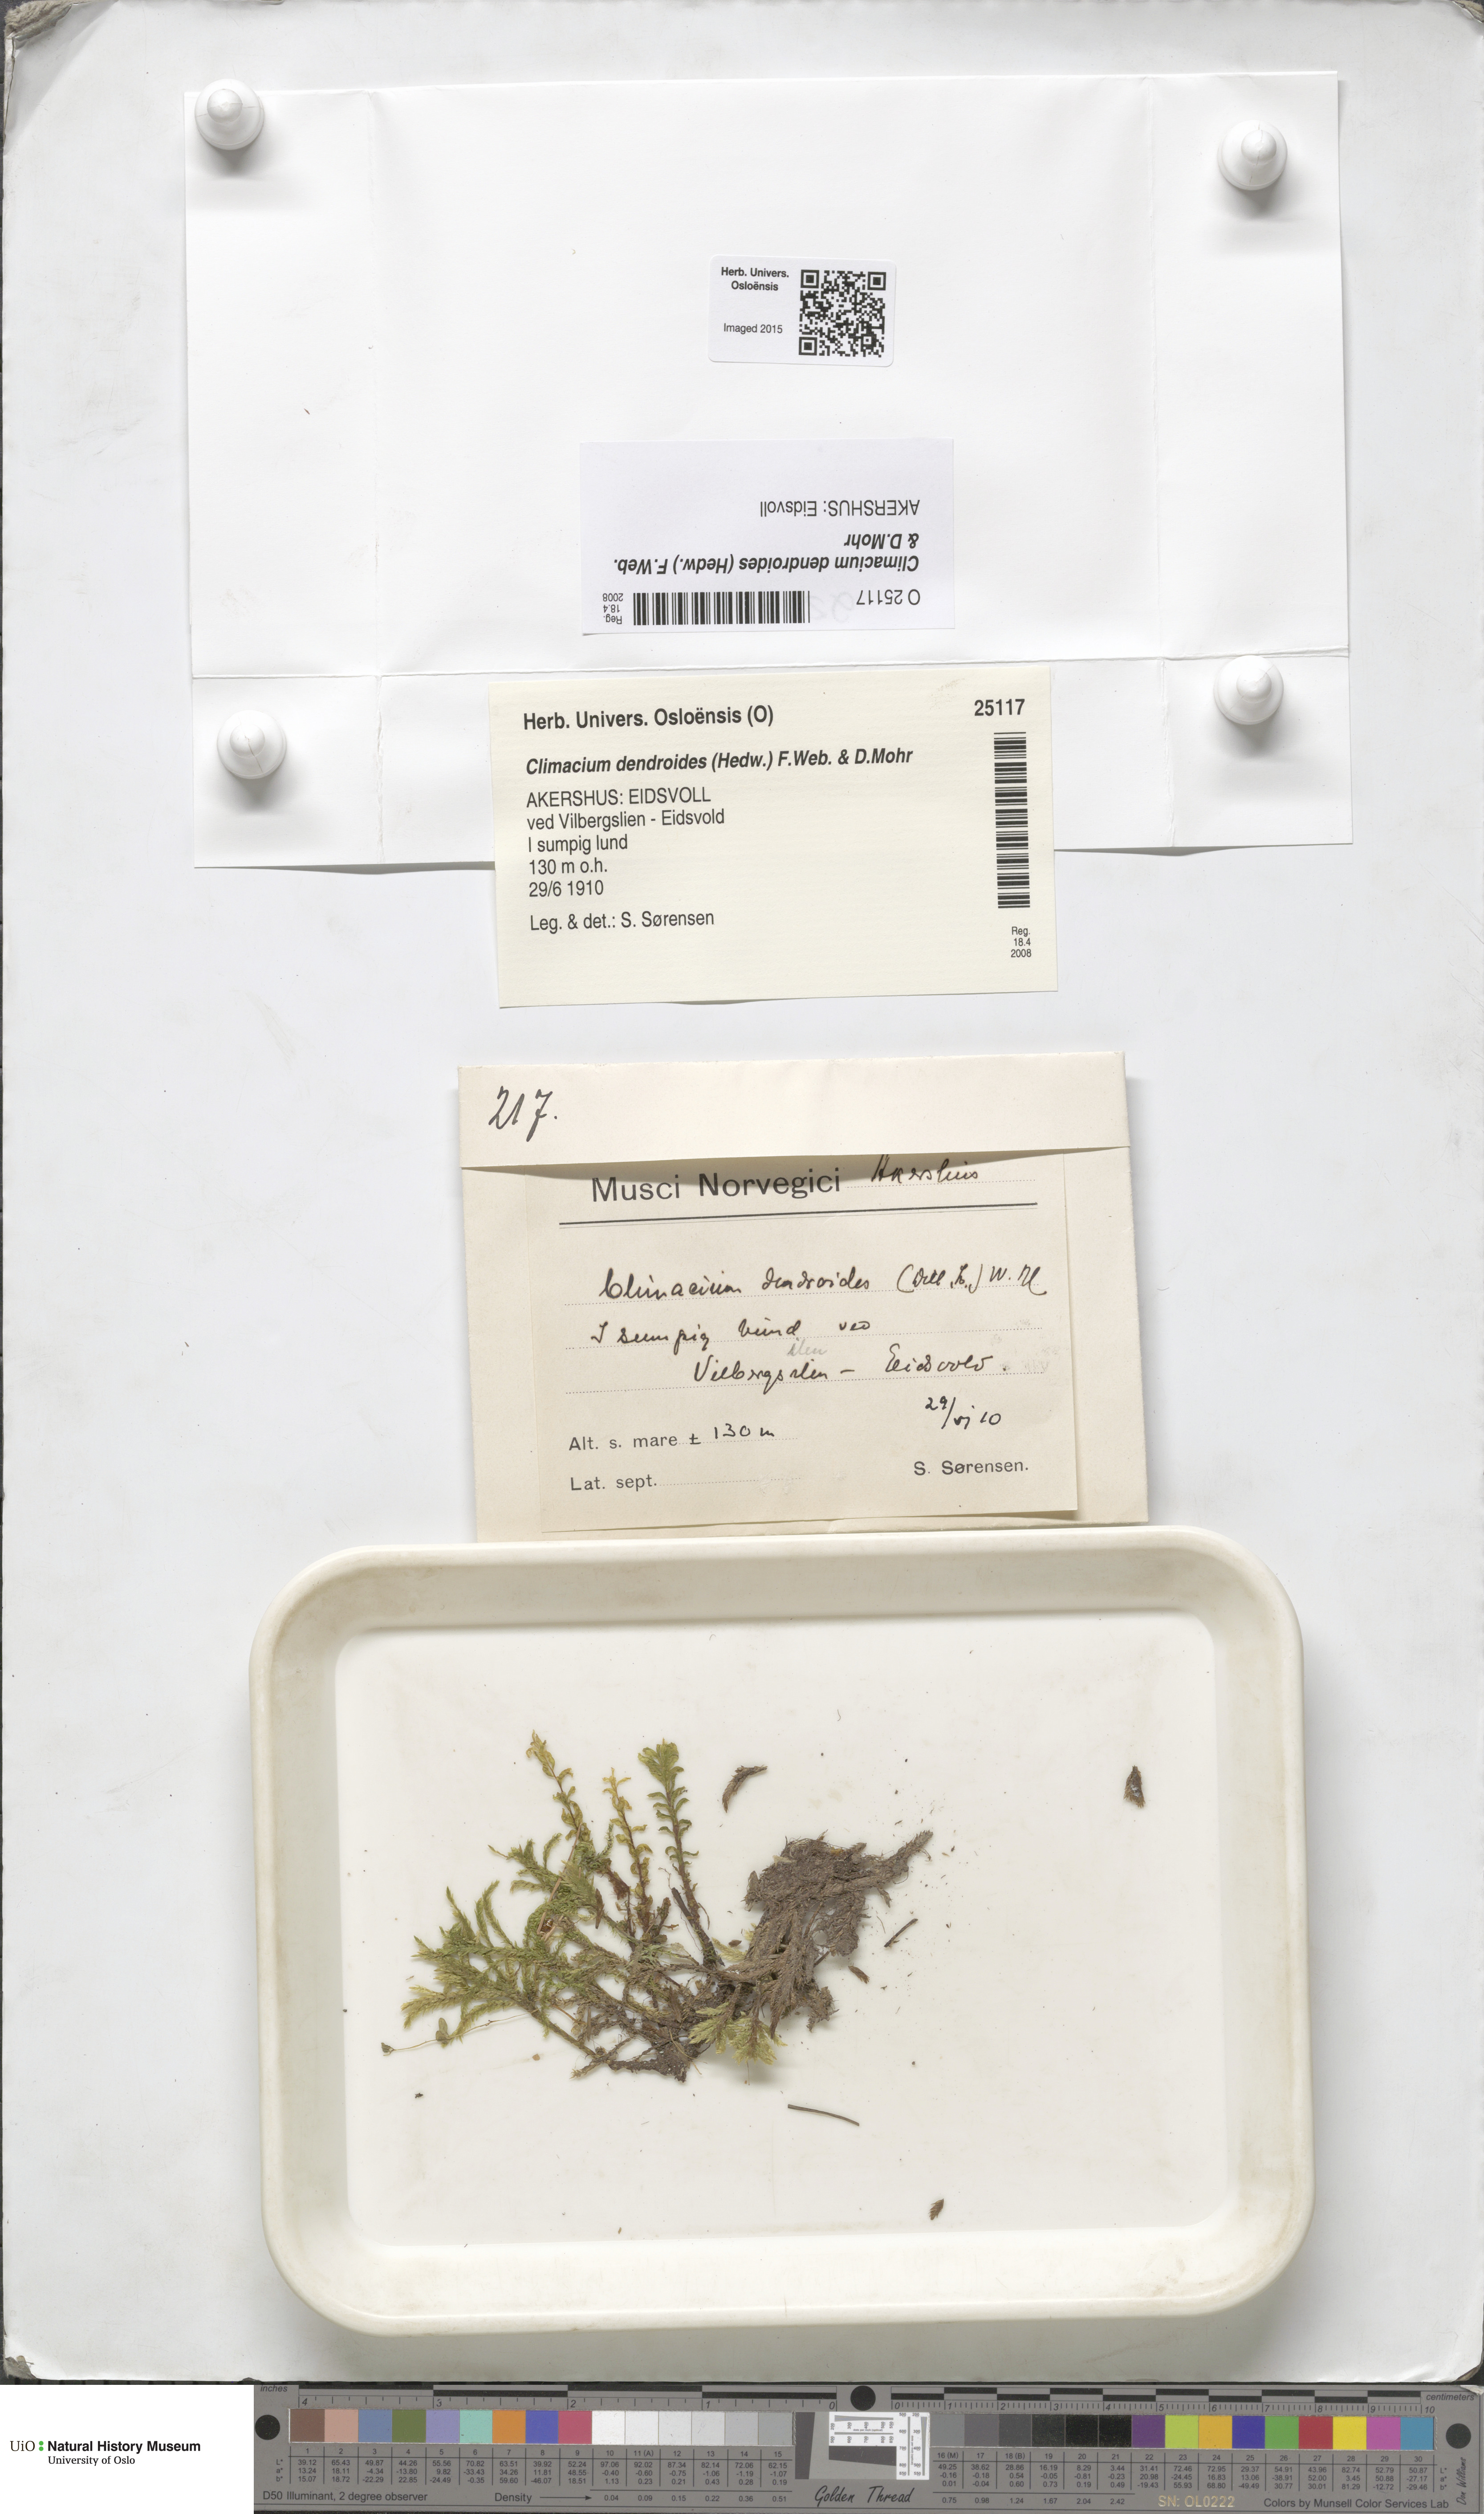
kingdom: Plantae
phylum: Bryophyta
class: Bryopsida
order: Hypnales
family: Climaciaceae
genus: Climacium
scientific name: Climacium dendroides
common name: Northern tree moss
